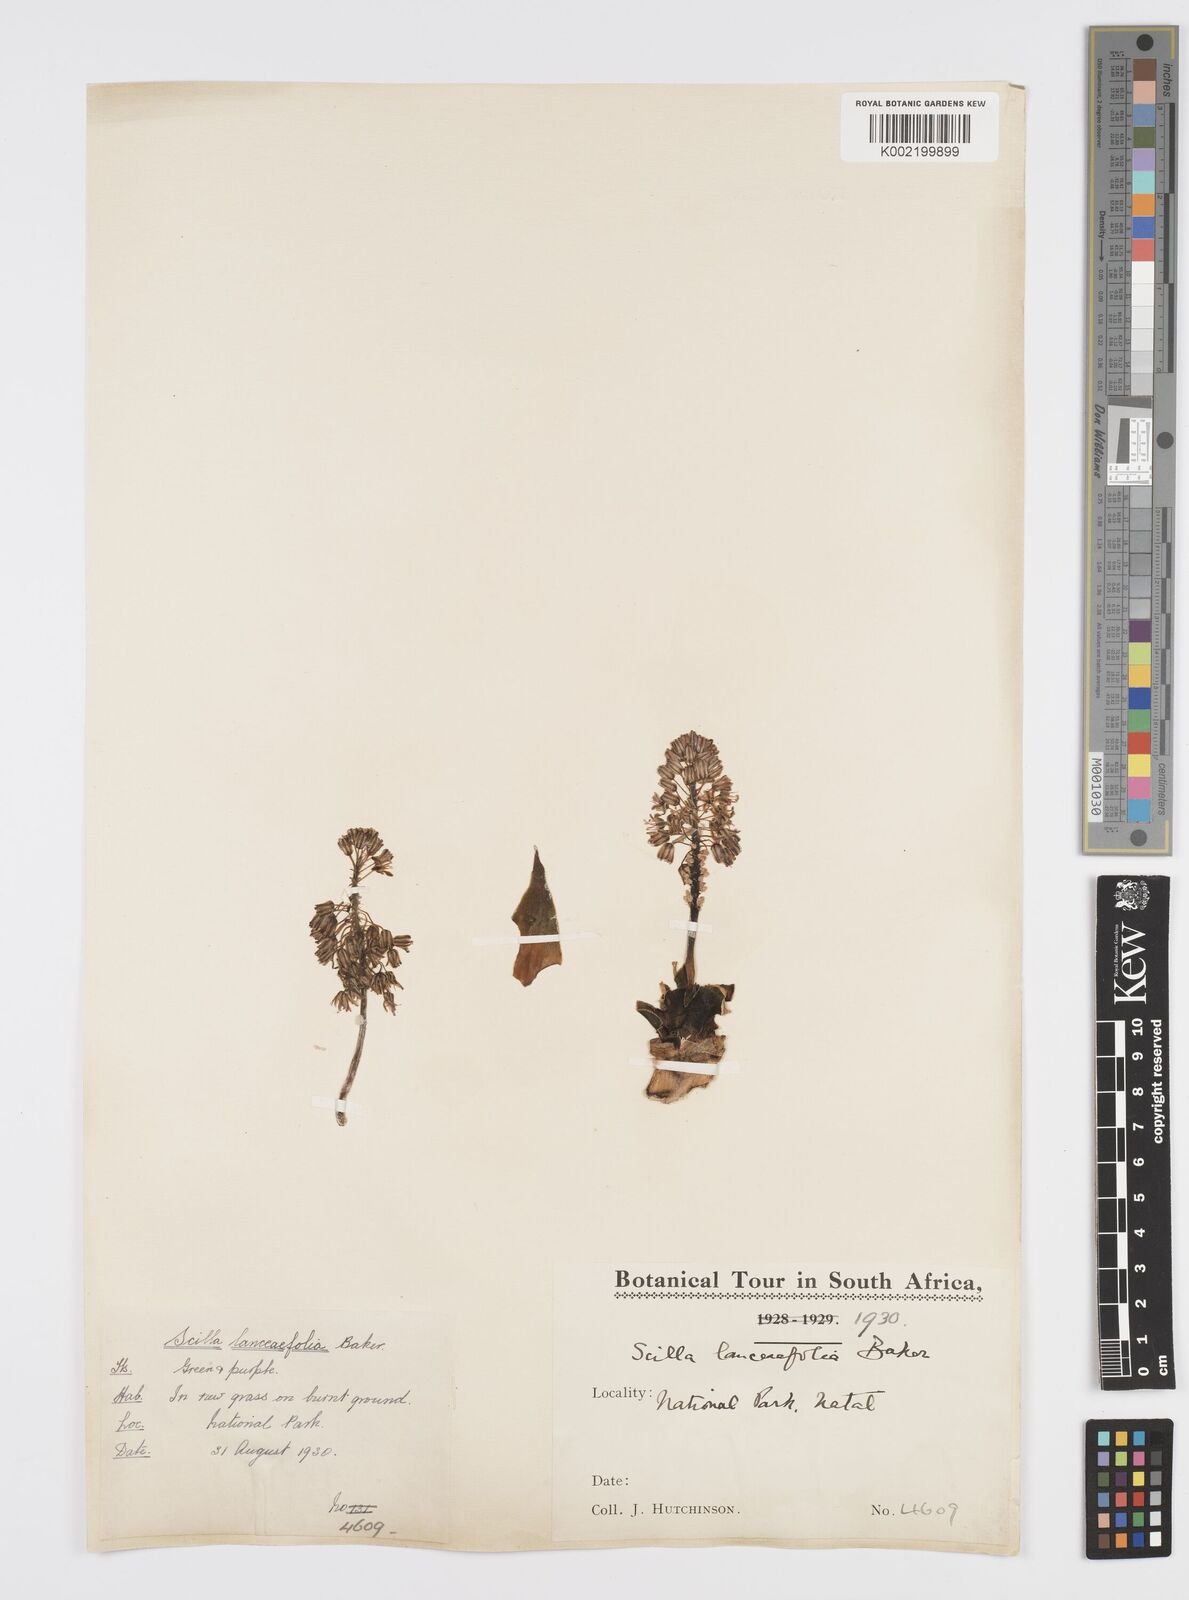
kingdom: Plantae
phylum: Tracheophyta
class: Liliopsida
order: Asparagales
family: Asparagaceae
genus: Ledebouria
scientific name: Ledebouria revoluta
